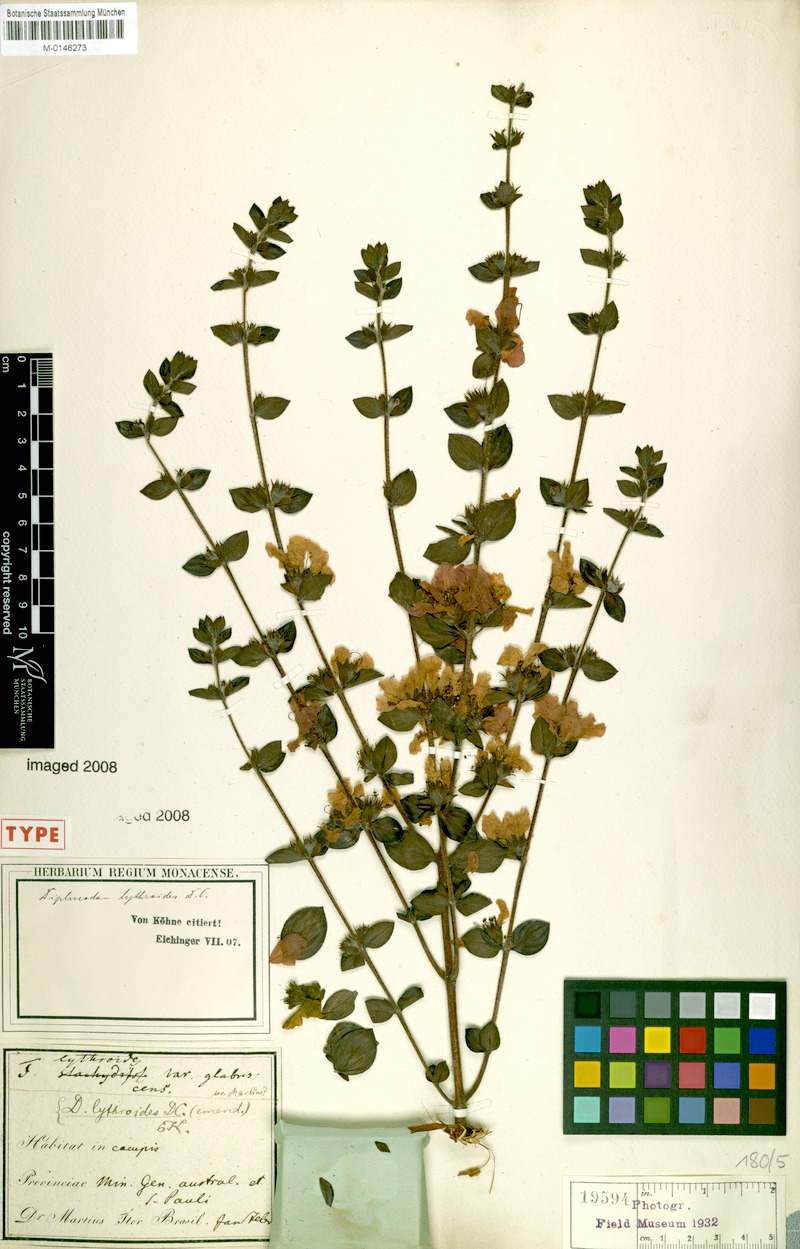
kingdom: Plantae
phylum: Tracheophyta
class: Magnoliopsida
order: Myrtales
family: Lythraceae
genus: Diplusodon
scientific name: Diplusodon villosissimus
